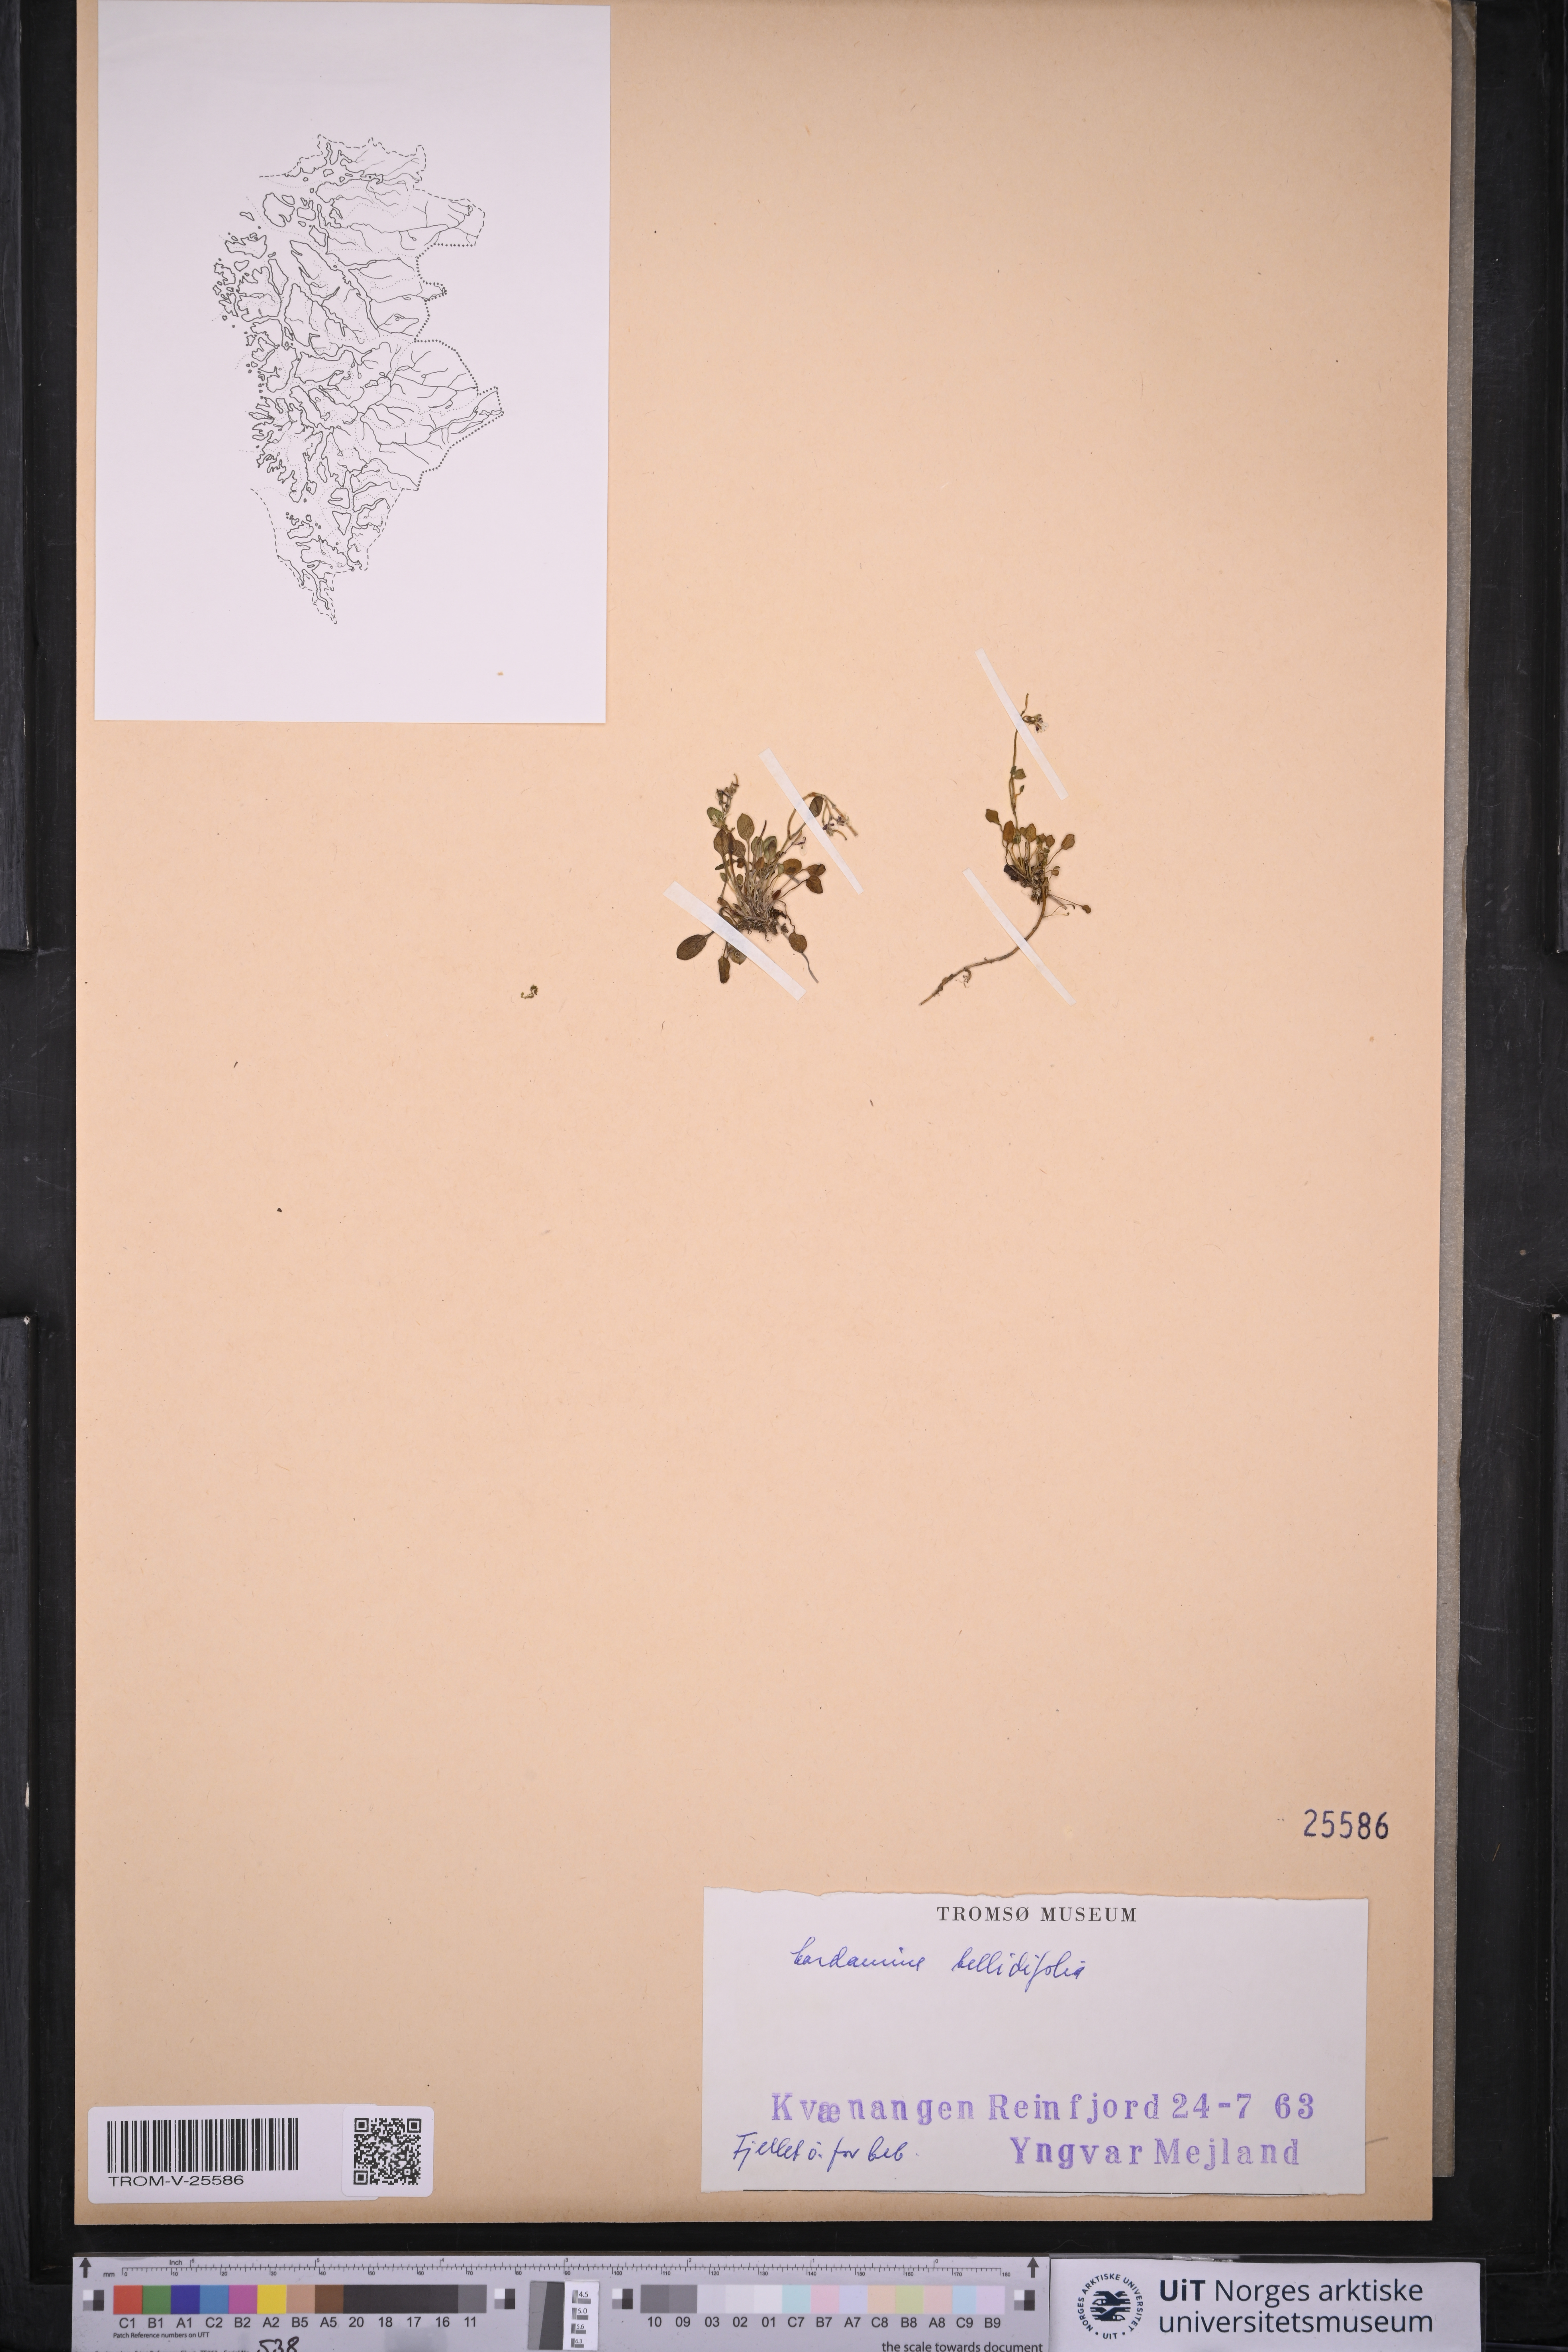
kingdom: Plantae
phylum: Tracheophyta
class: Magnoliopsida
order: Brassicales
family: Brassicaceae
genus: Cardamine
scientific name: Cardamine bellidifolia
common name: Alpine bittercress
